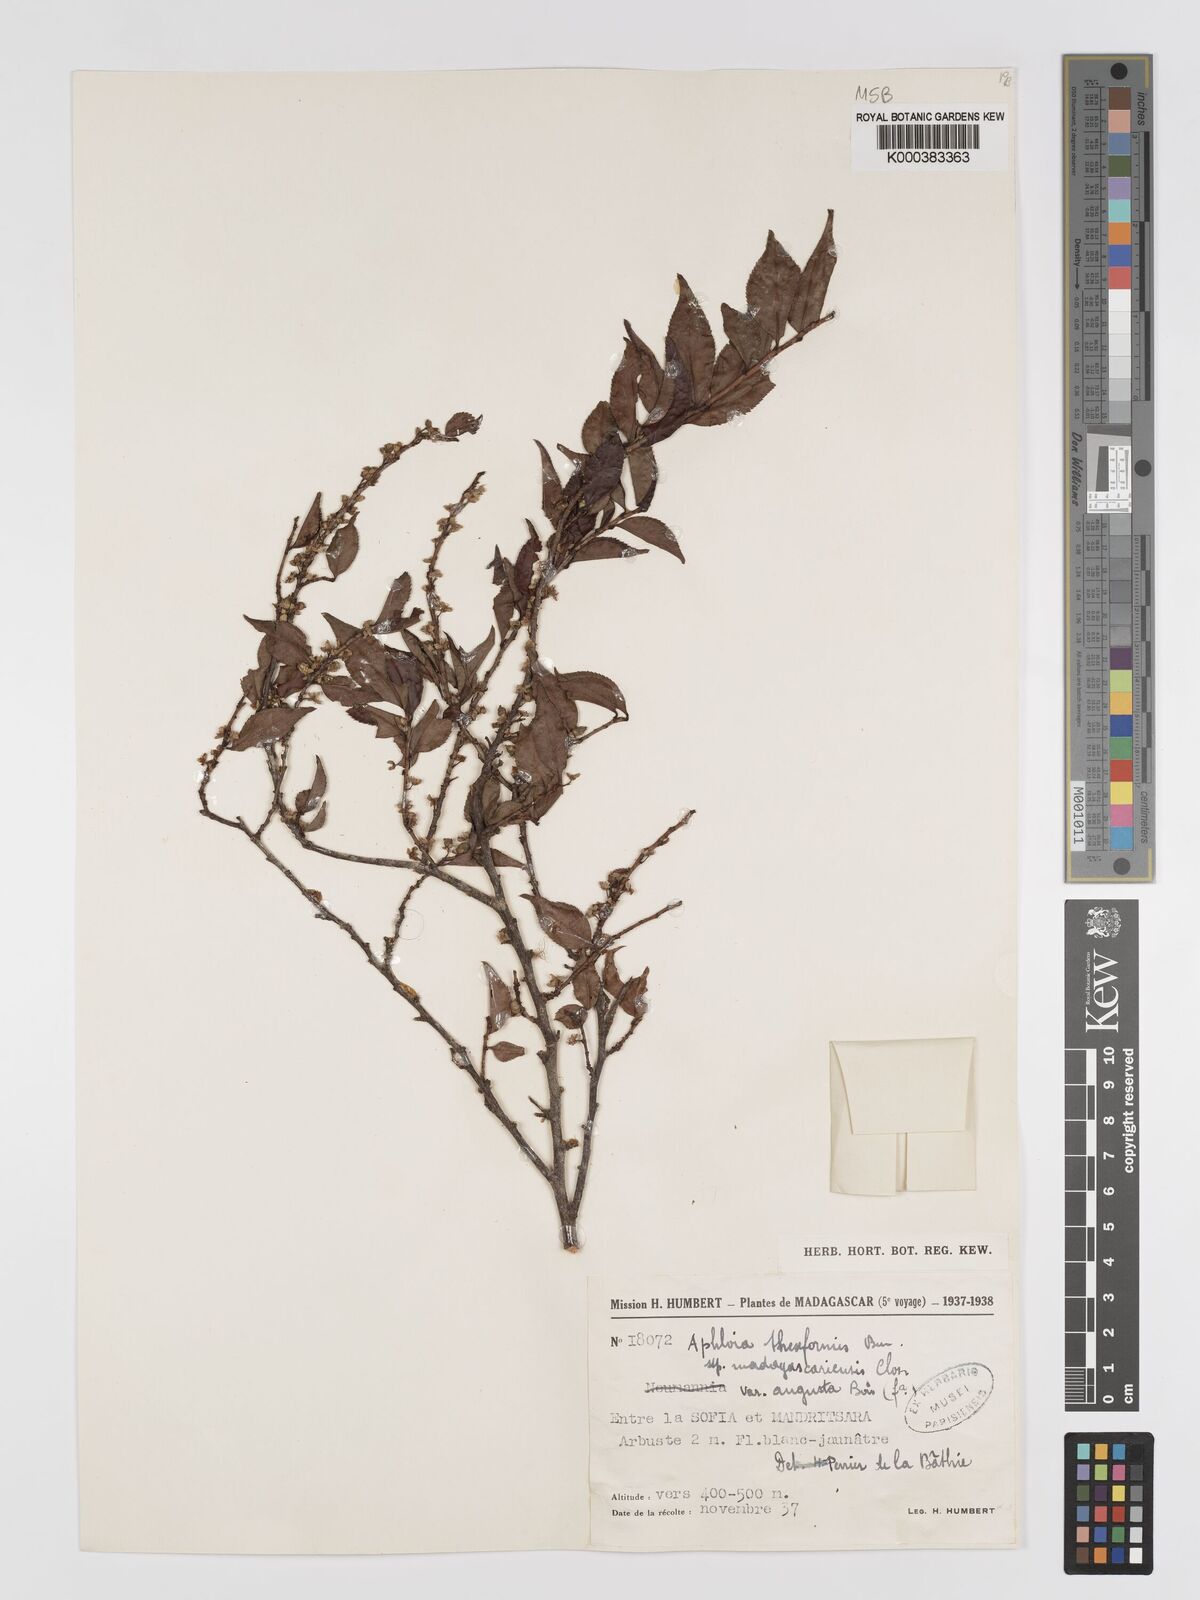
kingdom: Plantae
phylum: Tracheophyta
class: Magnoliopsida
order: Crossosomatales
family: Aphloiaceae
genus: Aphloia
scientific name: Aphloia theiformis
